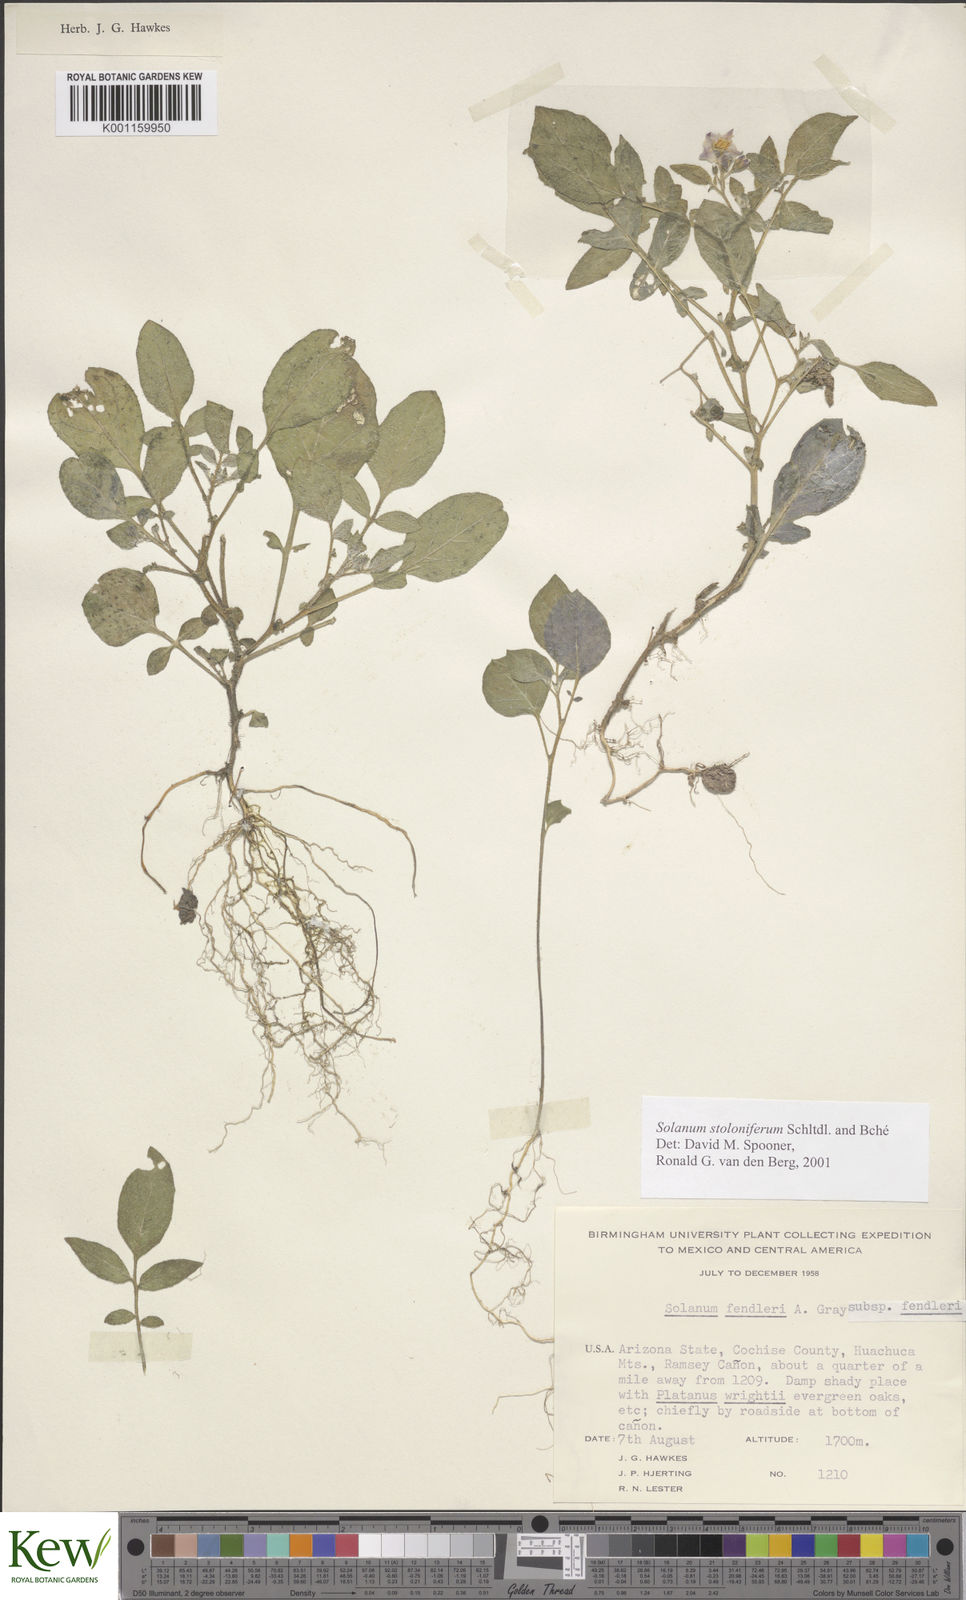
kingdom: Plantae
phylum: Tracheophyta
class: Magnoliopsida
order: Solanales
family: Solanaceae
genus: Solanum
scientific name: Solanum stoloniferum
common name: Fendler's nighshade
